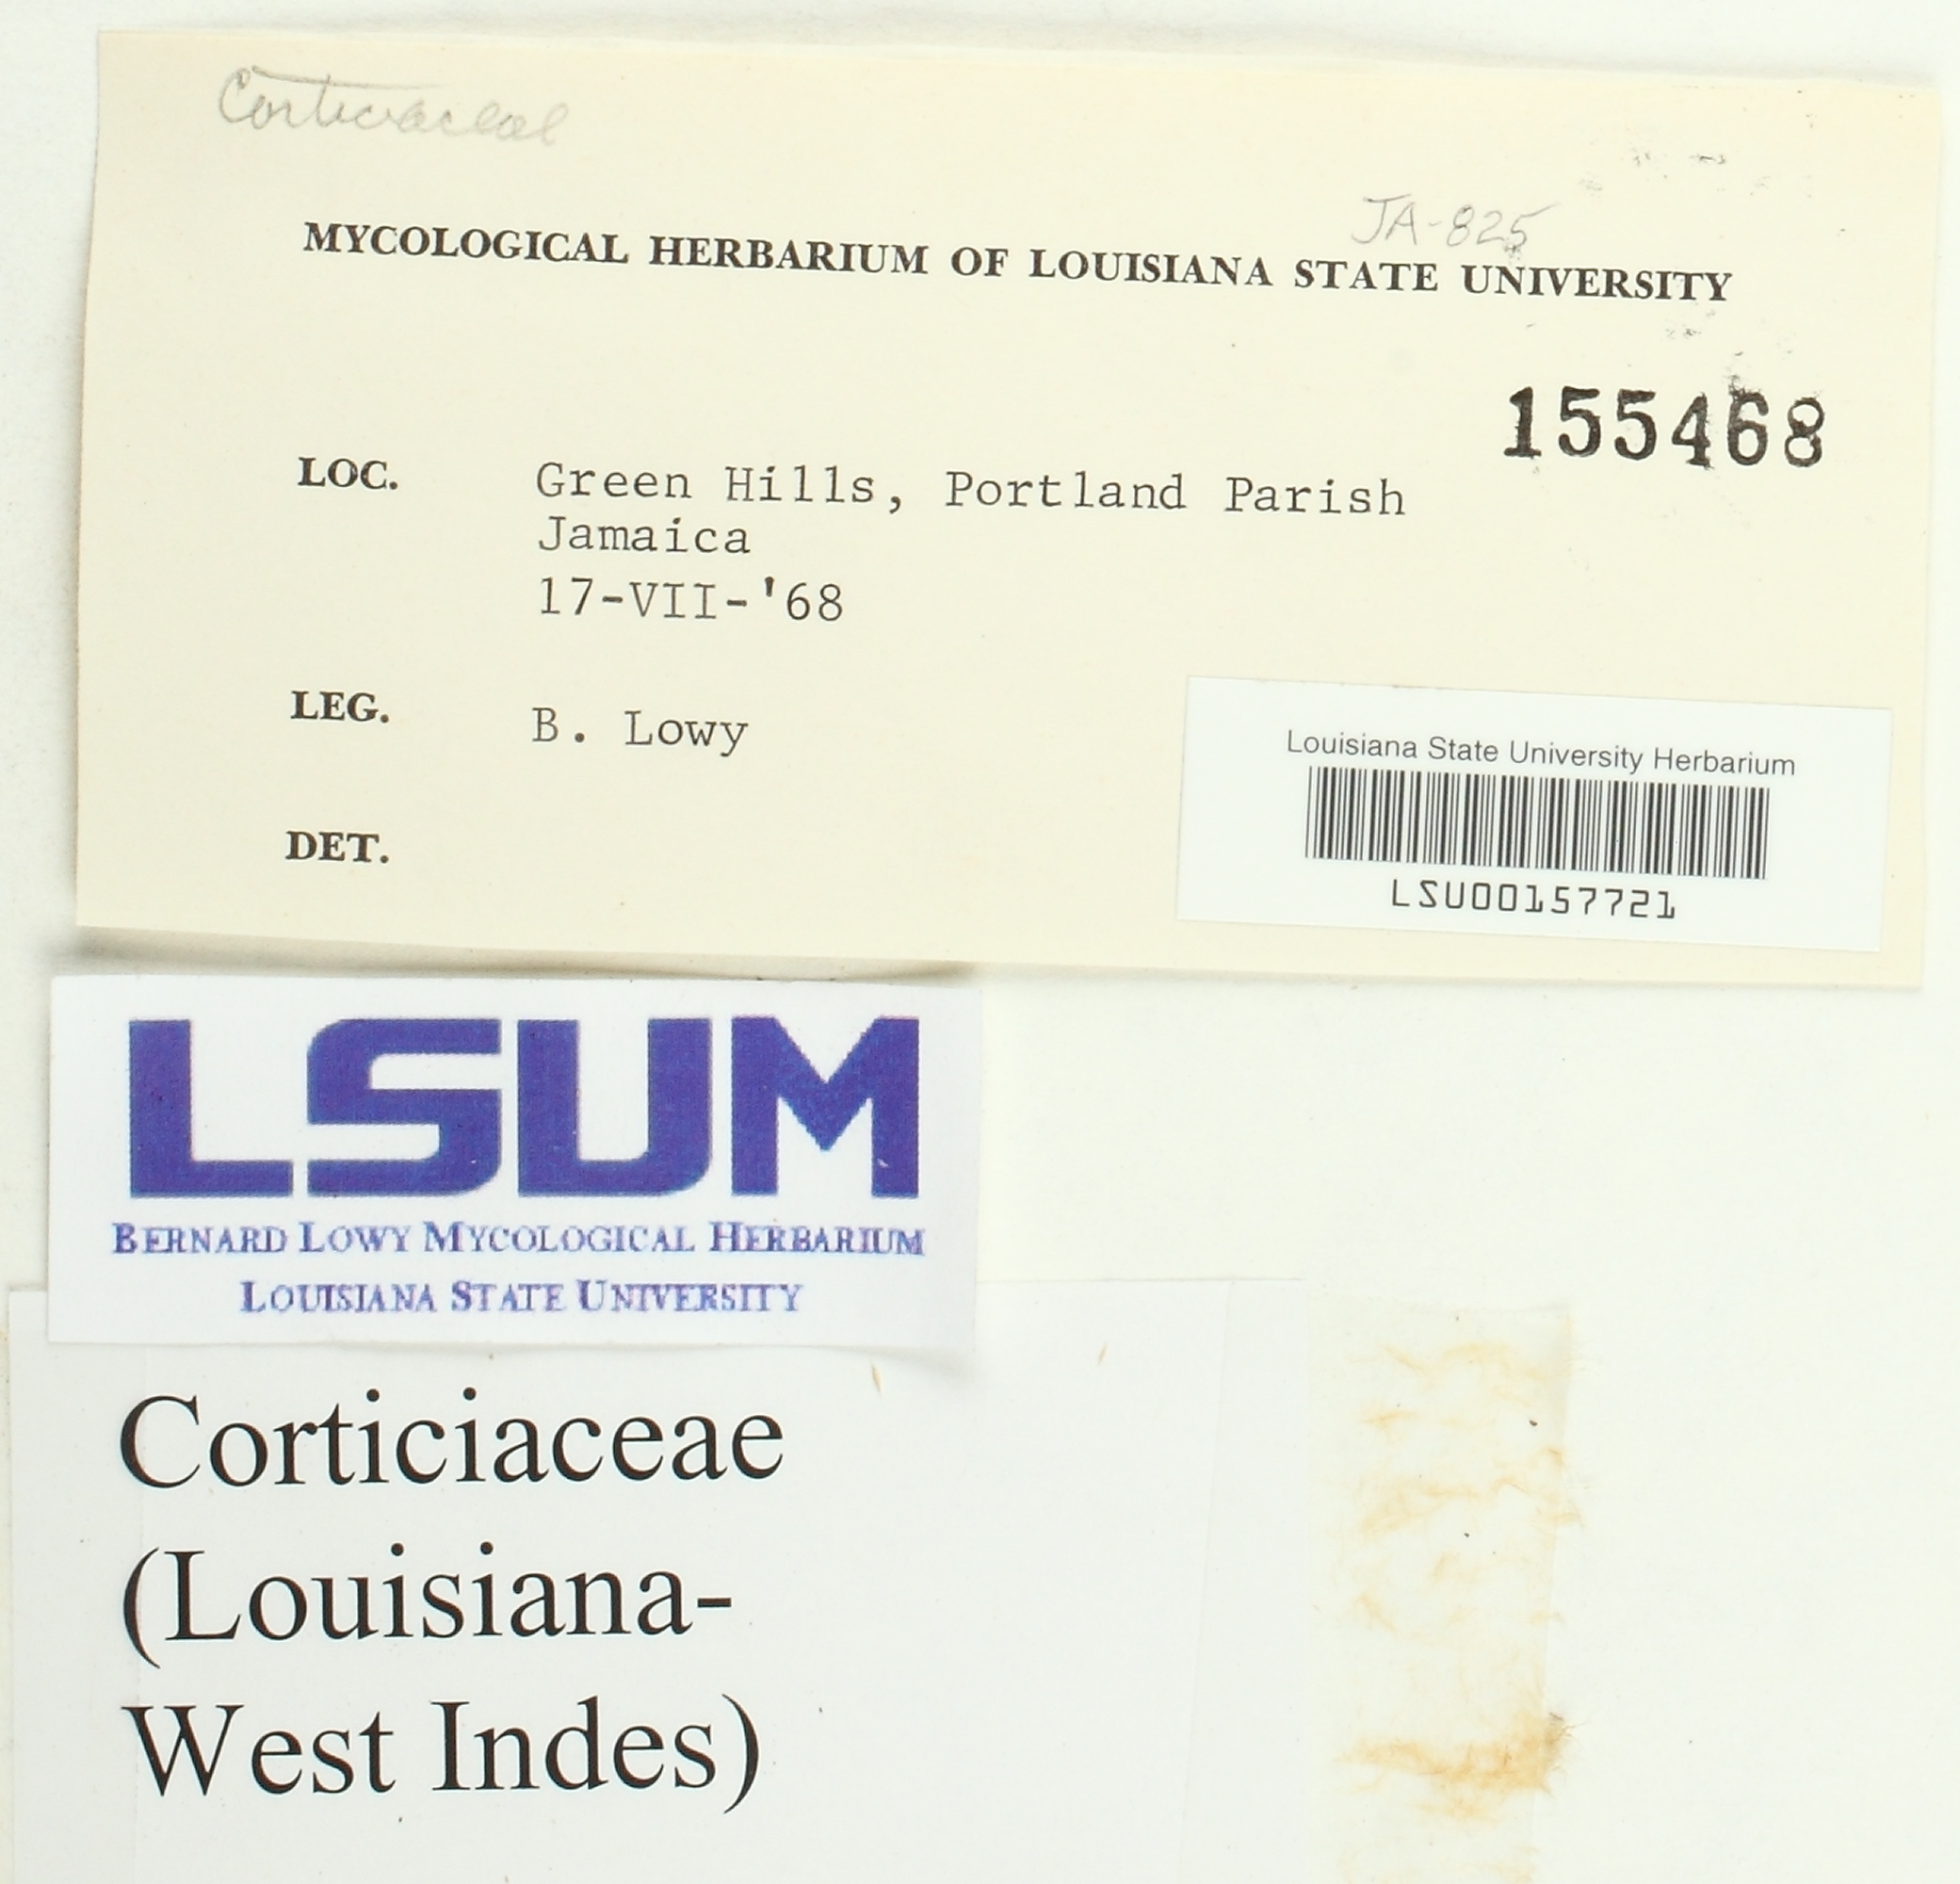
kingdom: Fungi
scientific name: Fungi
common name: Fungi
